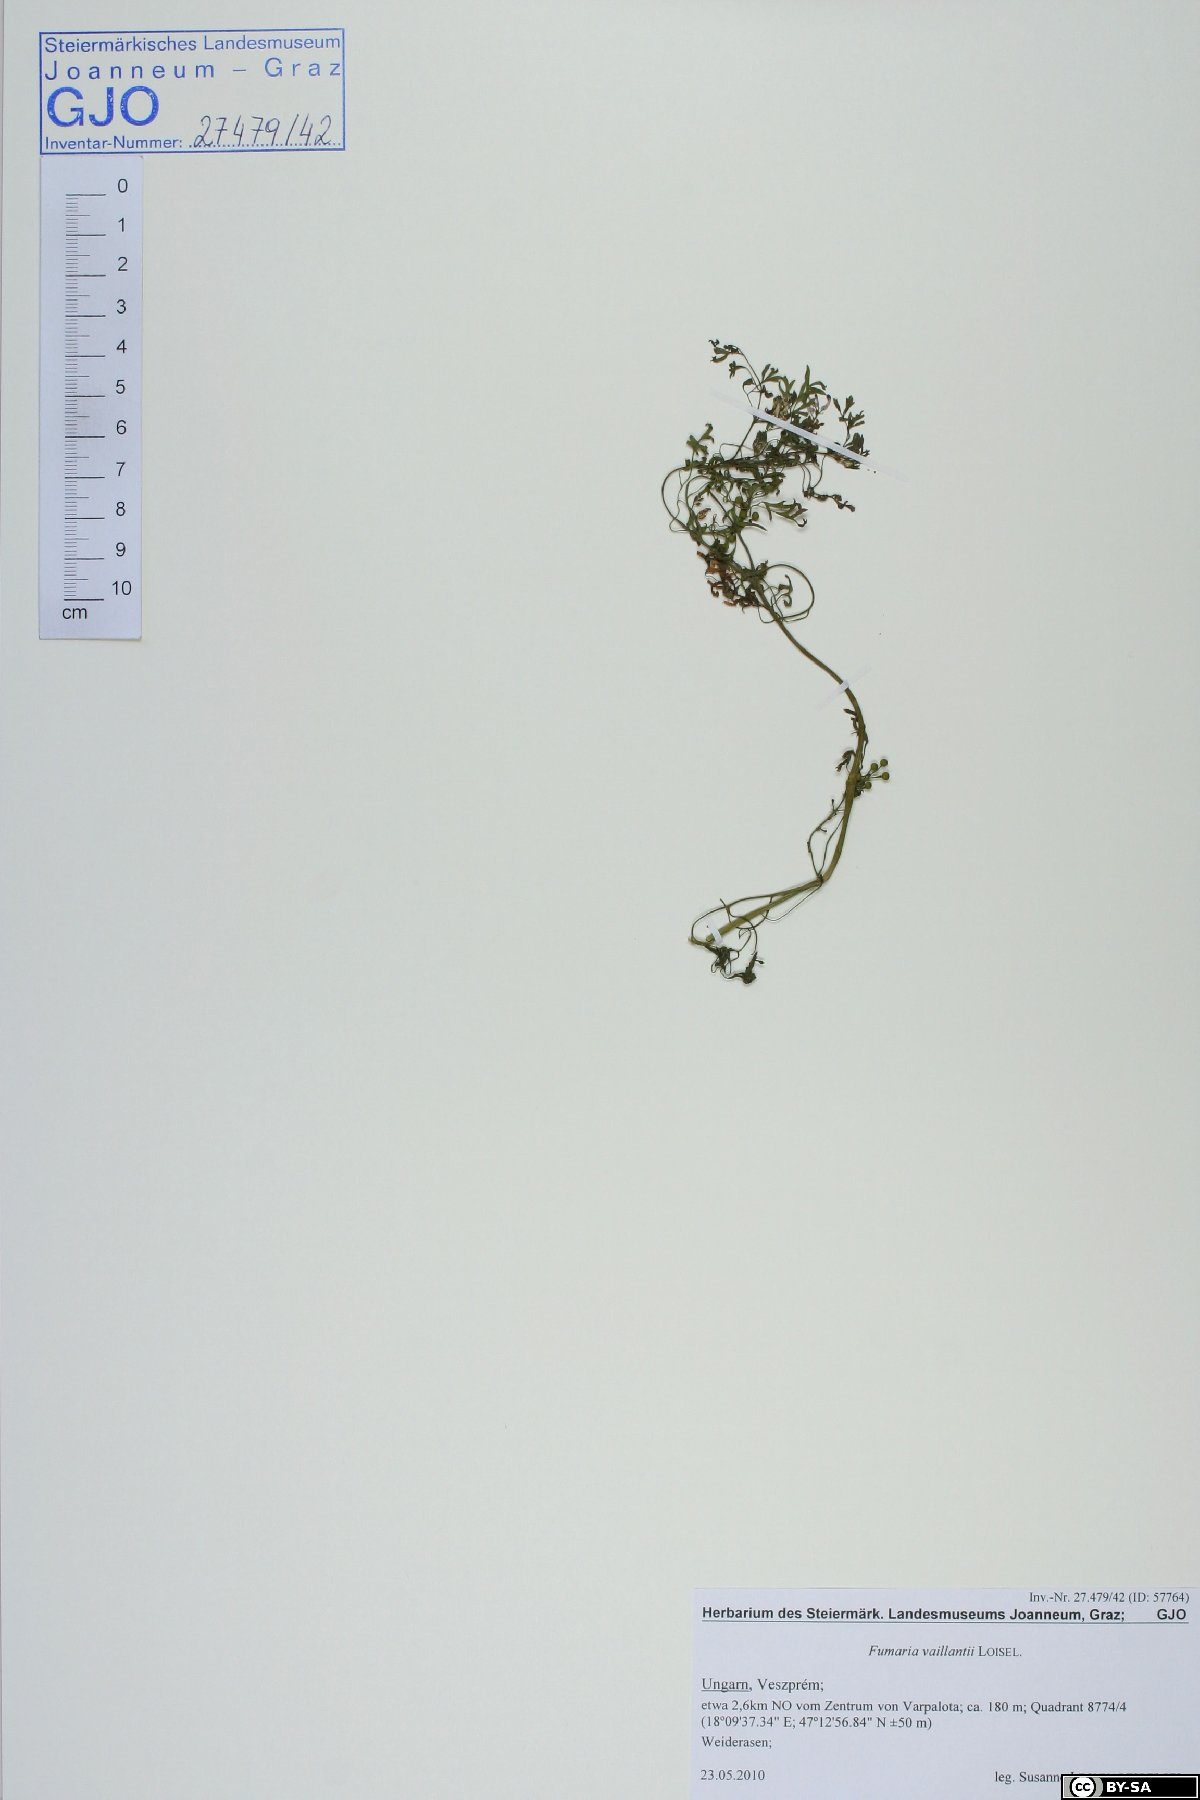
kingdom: Plantae
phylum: Tracheophyta
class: Magnoliopsida
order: Ranunculales
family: Papaveraceae
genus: Fumaria
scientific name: Fumaria vaillantii
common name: Few-flowered fumitory
